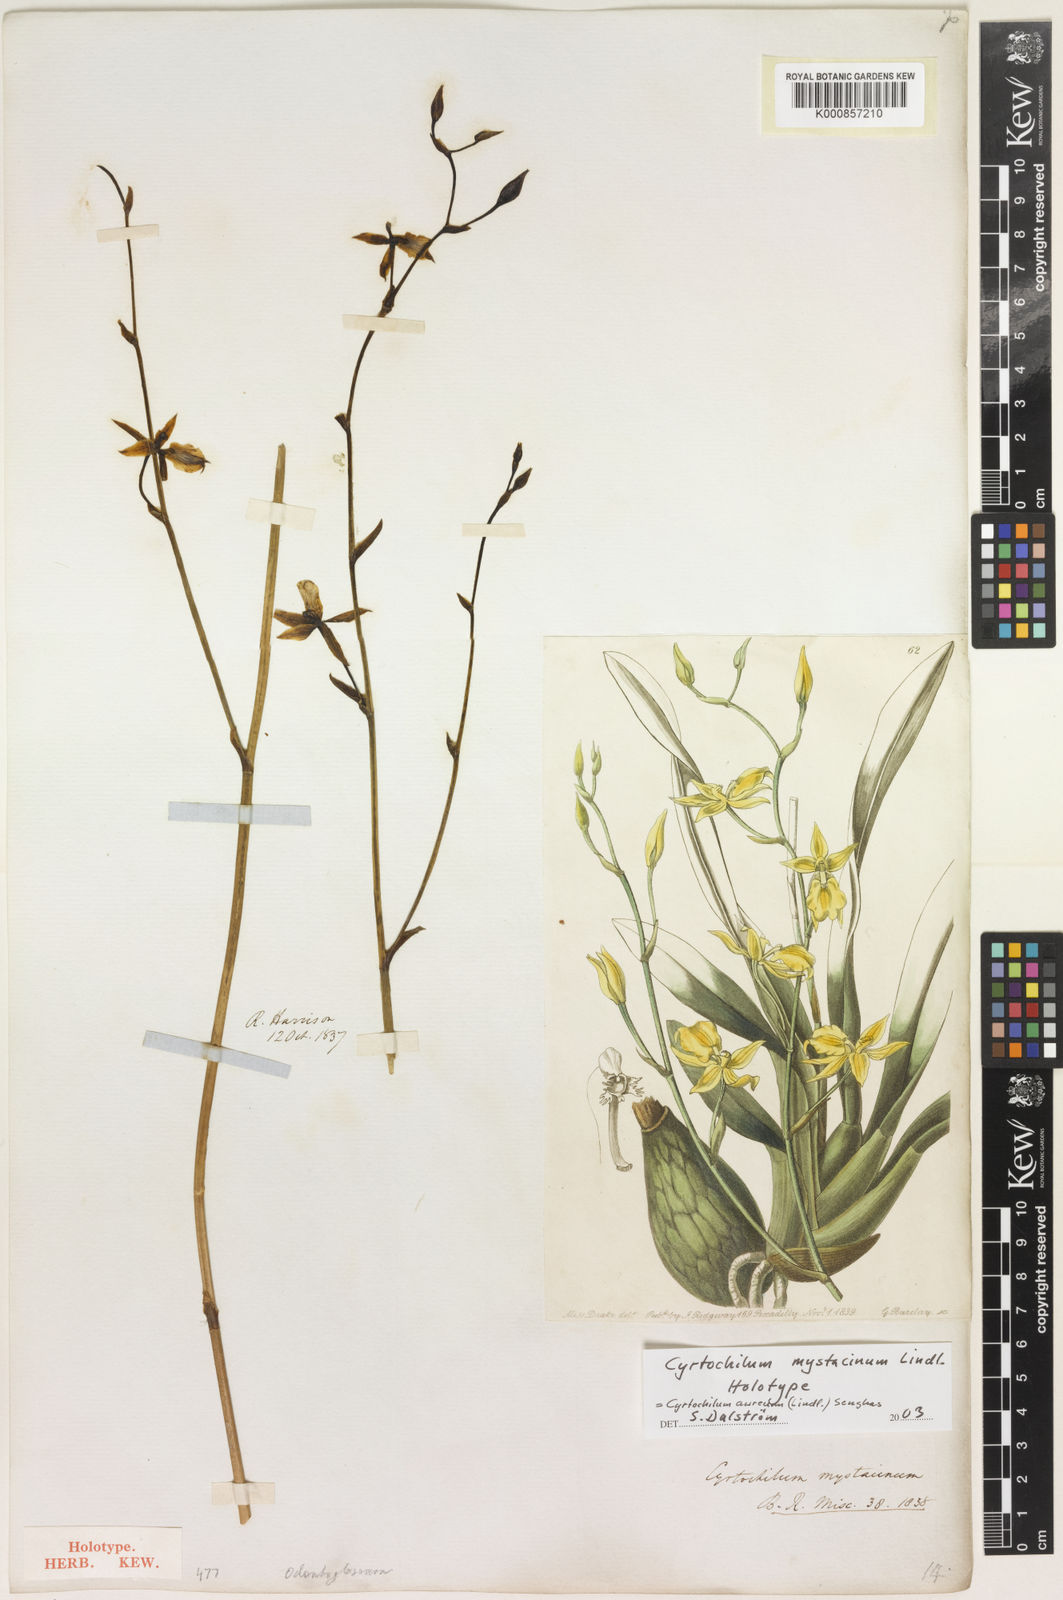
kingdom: Plantae
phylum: Tracheophyta
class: Liliopsida
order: Asparagales
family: Orchidaceae
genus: Cyrtochilum
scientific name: Cyrtochilum aureum
